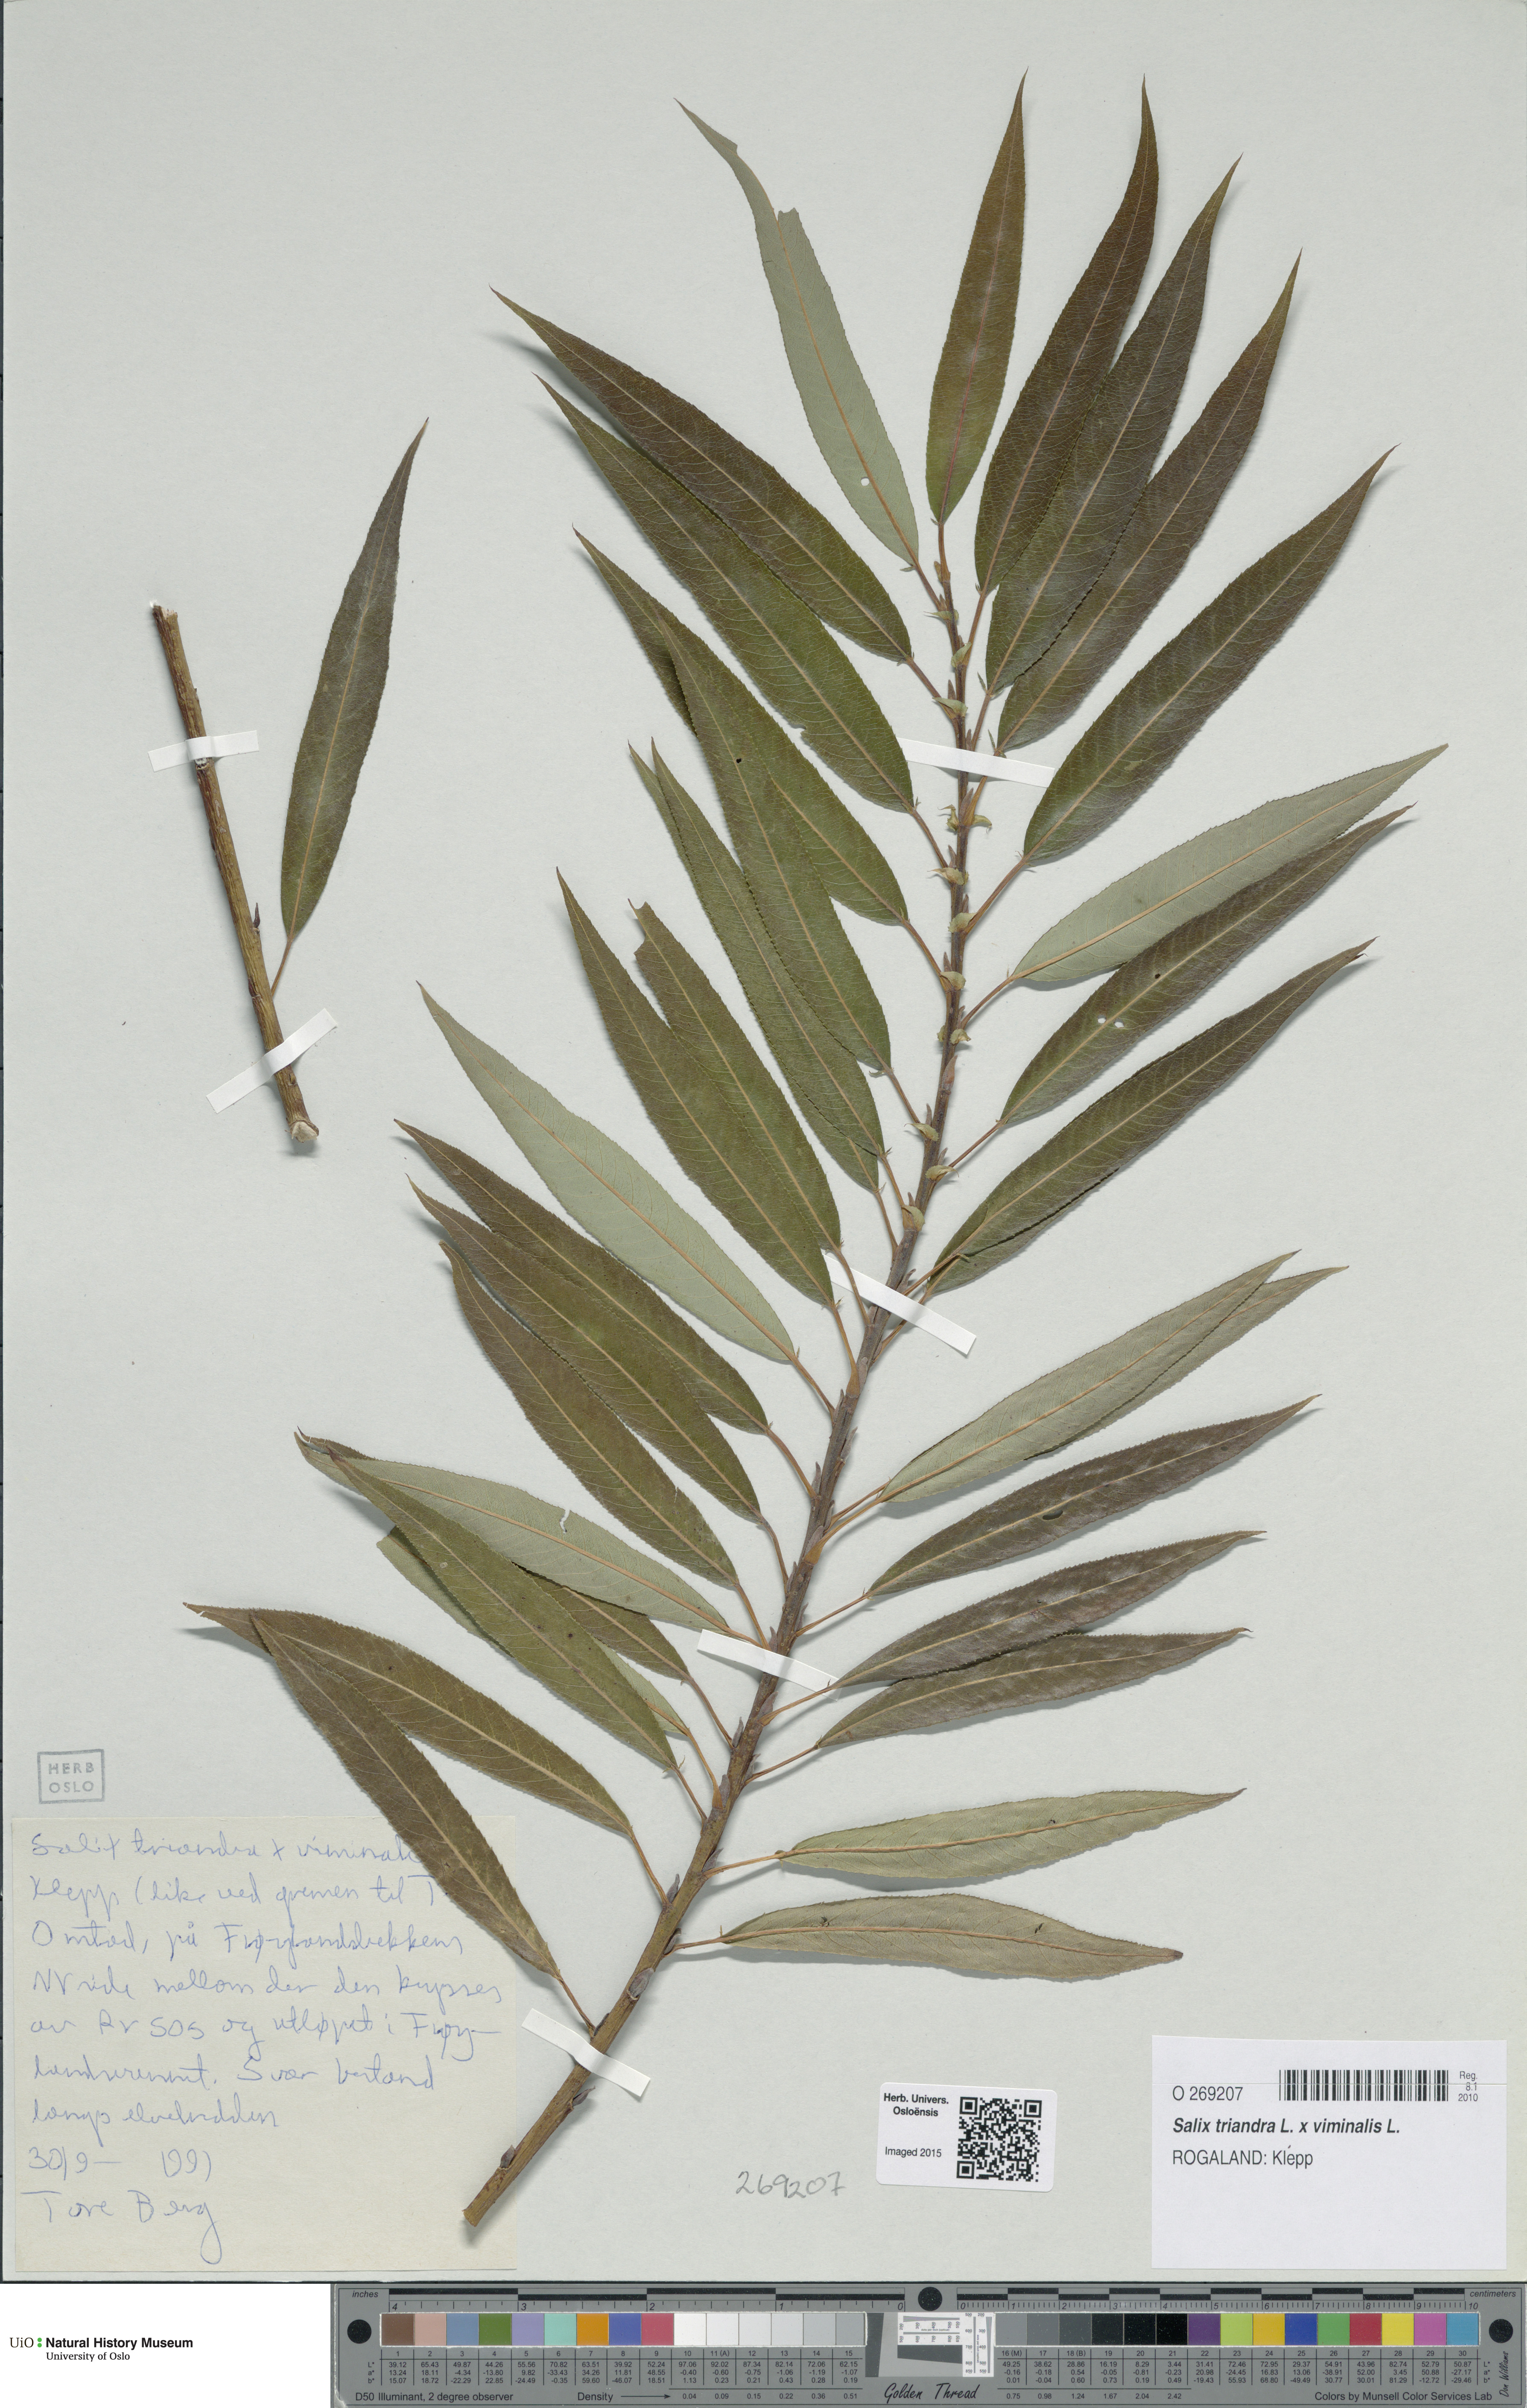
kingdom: Plantae
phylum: Tracheophyta
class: Magnoliopsida
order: Malpighiales
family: Salicaceae
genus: Salix
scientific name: Salix
